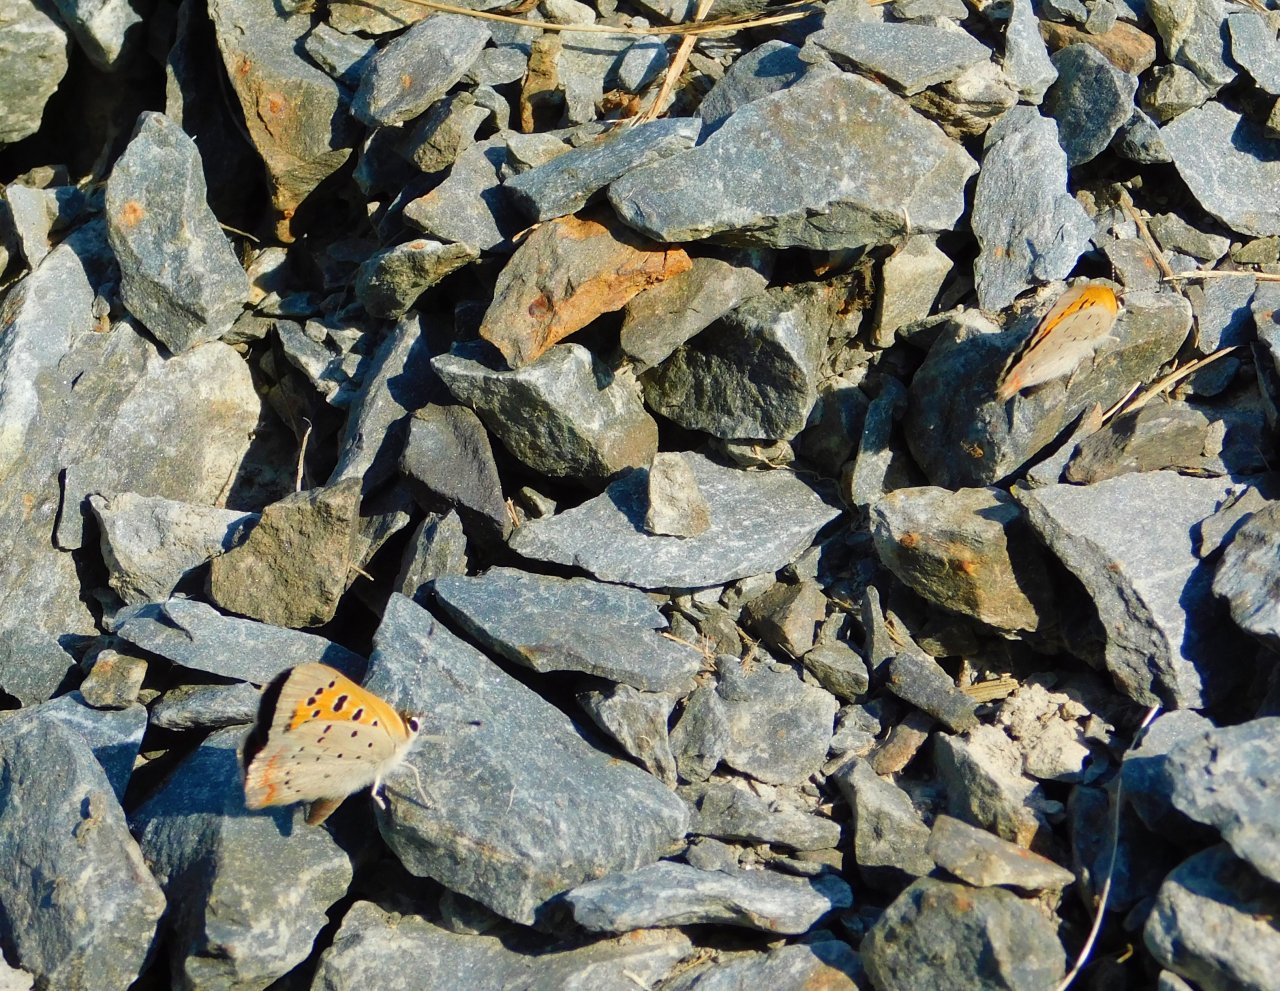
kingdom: Animalia
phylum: Arthropoda
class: Insecta
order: Lepidoptera
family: Lycaenidae
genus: Lycaena
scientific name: Lycaena phlaeas
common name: American Copper
